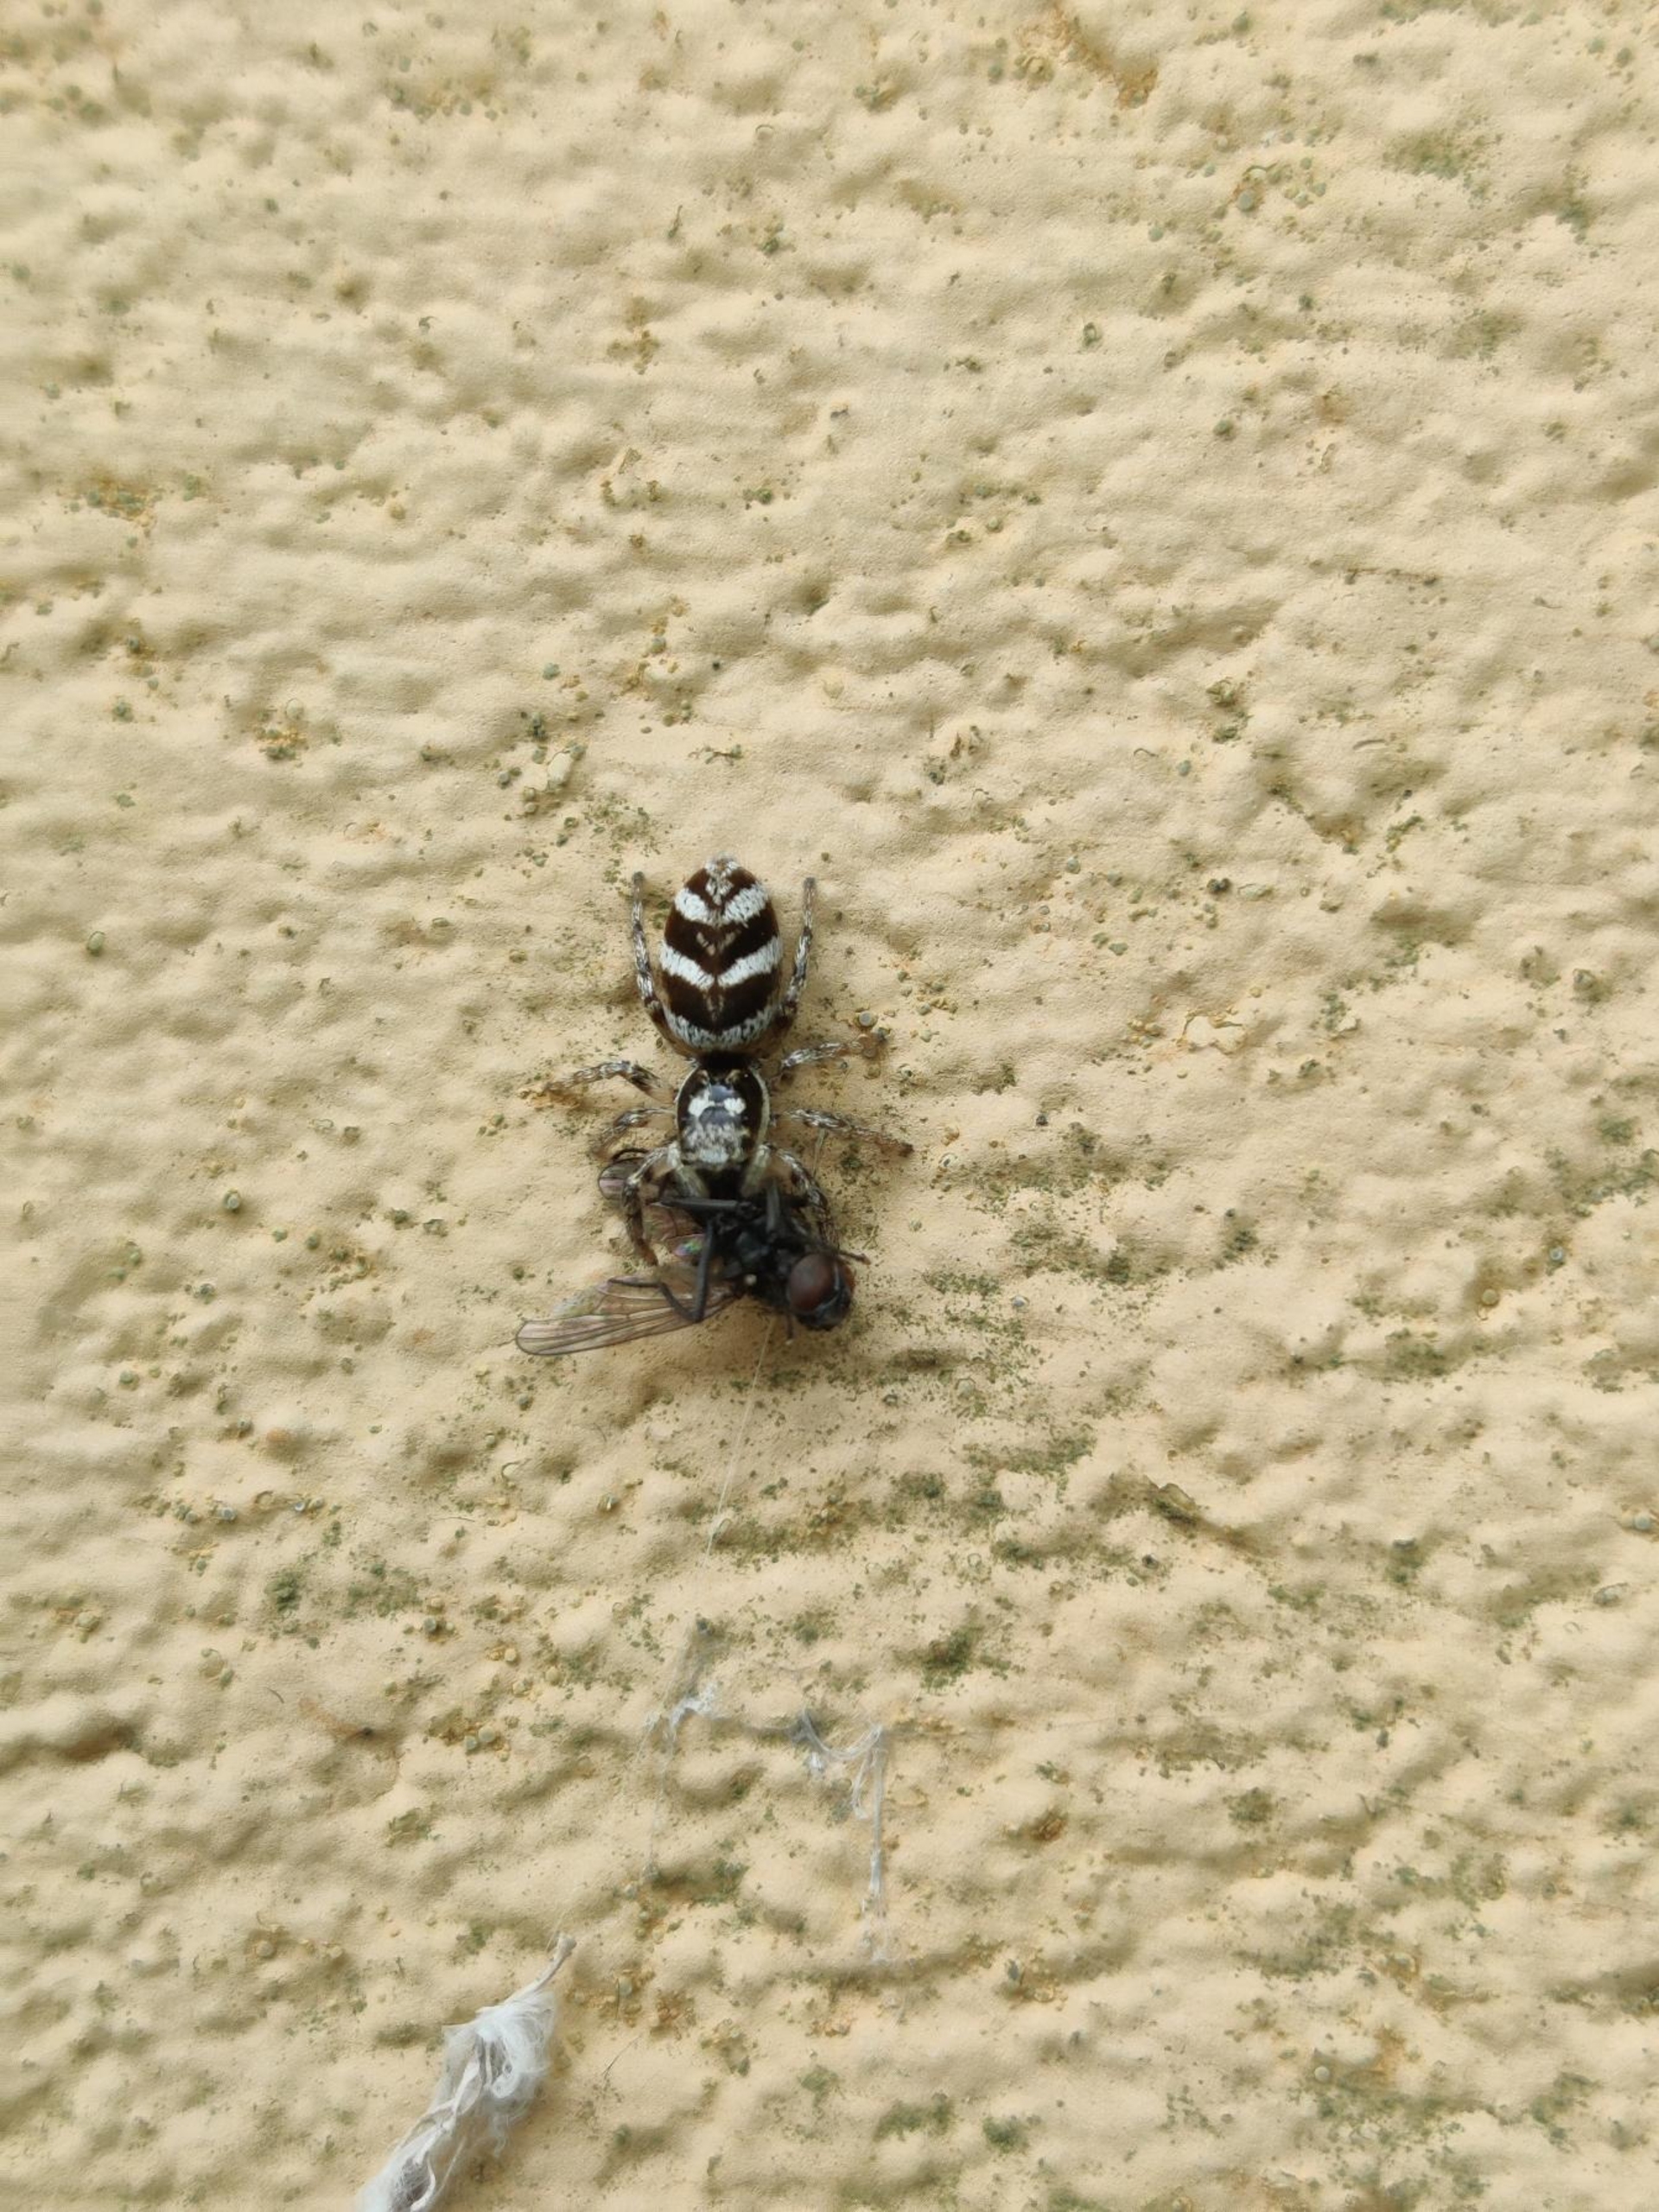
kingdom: Animalia
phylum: Arthropoda
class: Arachnida
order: Araneae
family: Salticidae
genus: Salticus
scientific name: Salticus scenicus
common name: Almindelig zebraedderkop
